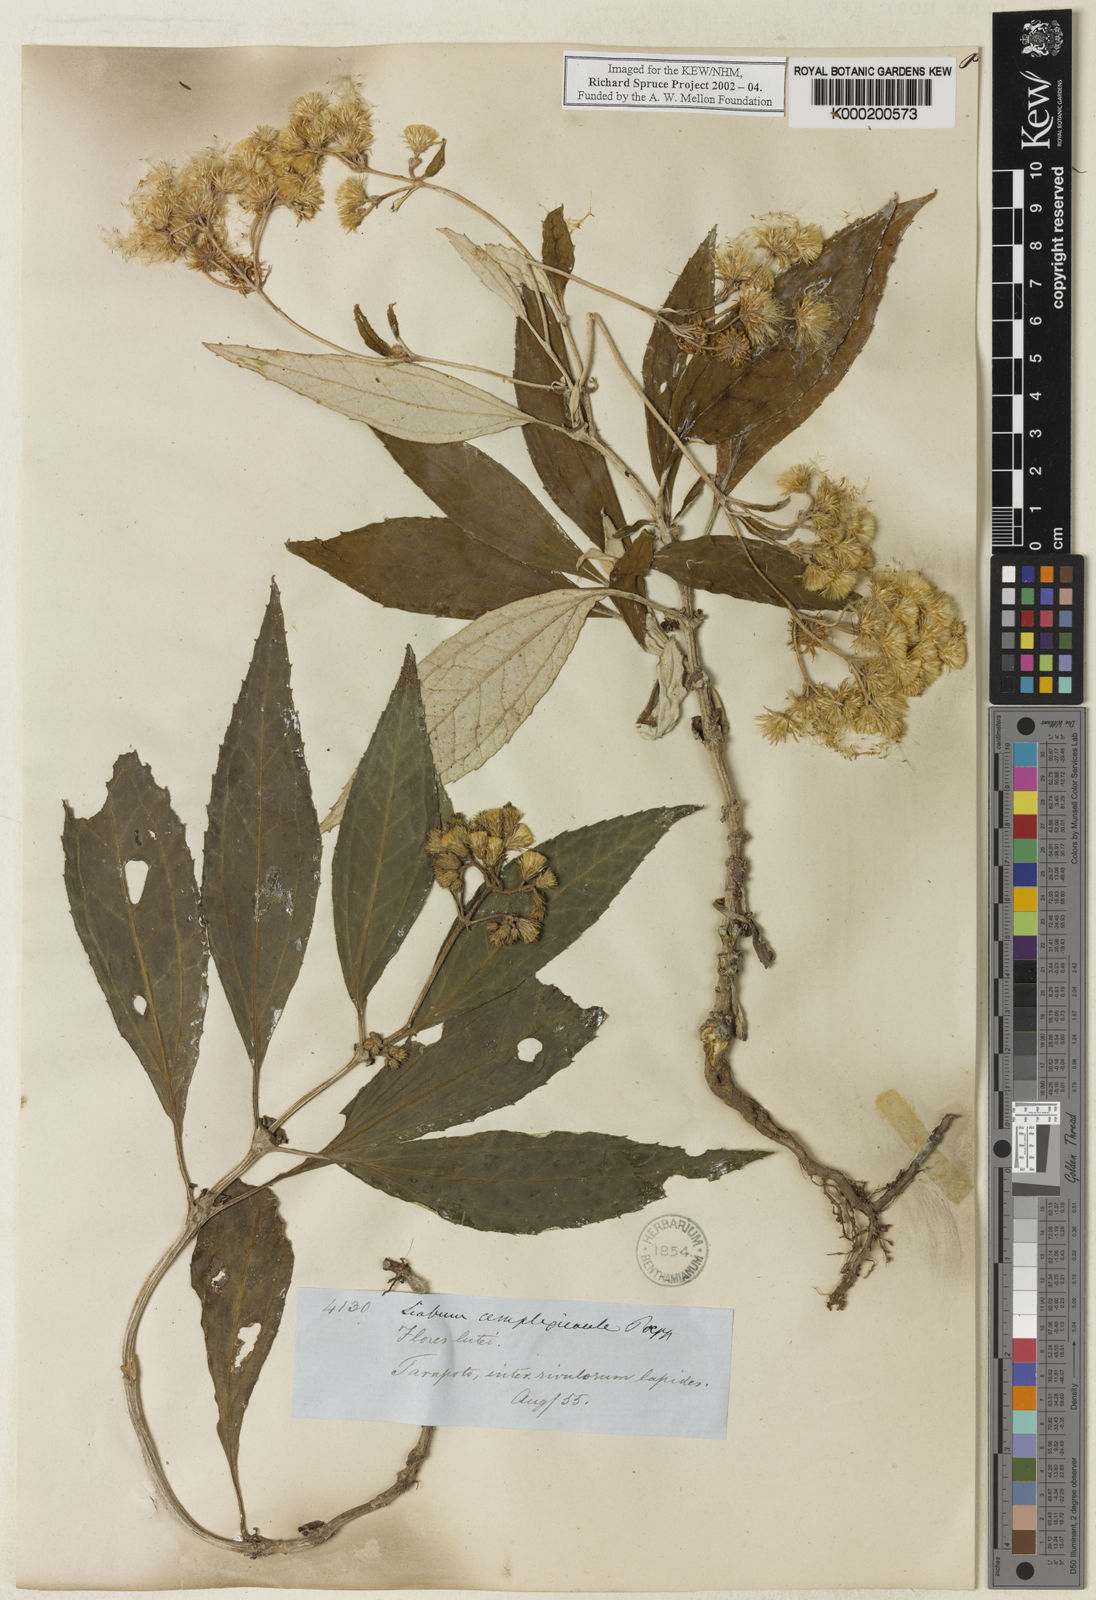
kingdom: Plantae
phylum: Tracheophyta
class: Magnoliopsida
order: Asterales
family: Asteraceae
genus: Liabum
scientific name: Liabum amplexicaule
